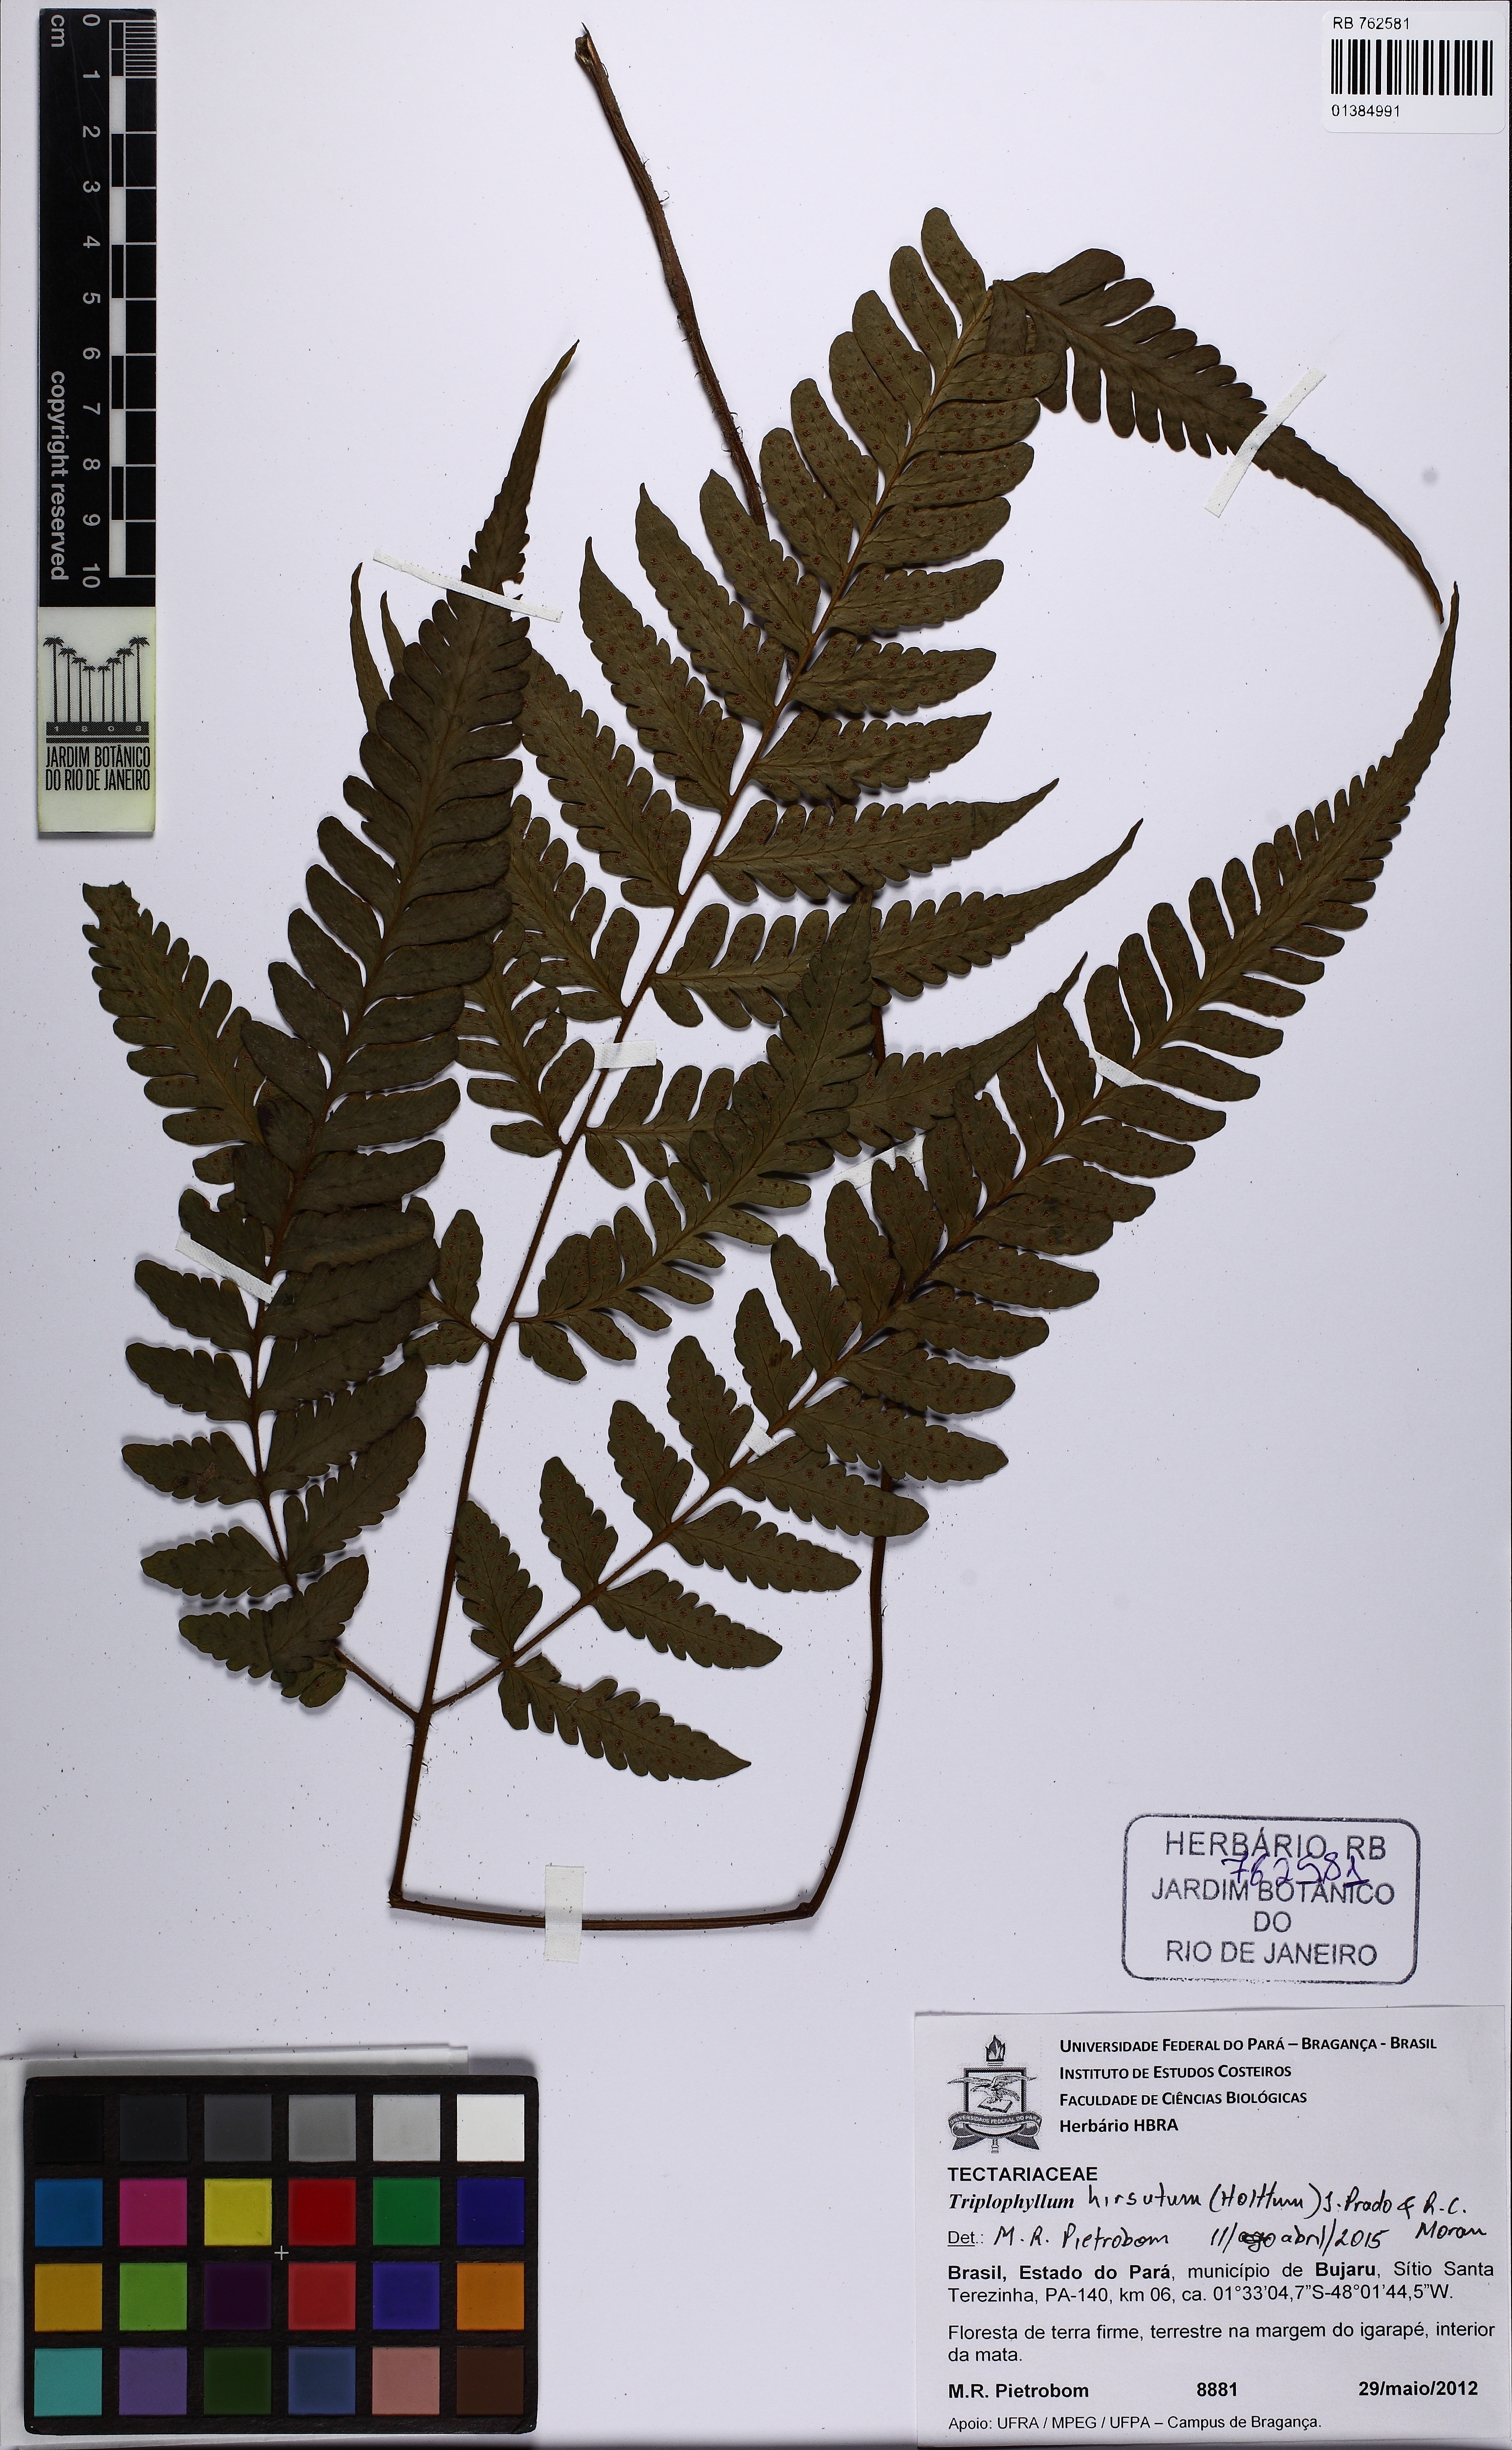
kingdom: Plantae
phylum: Tracheophyta
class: Polypodiopsida
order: Polypodiales
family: Tectariaceae
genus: Triplophyllum
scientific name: Triplophyllum hirsutum
